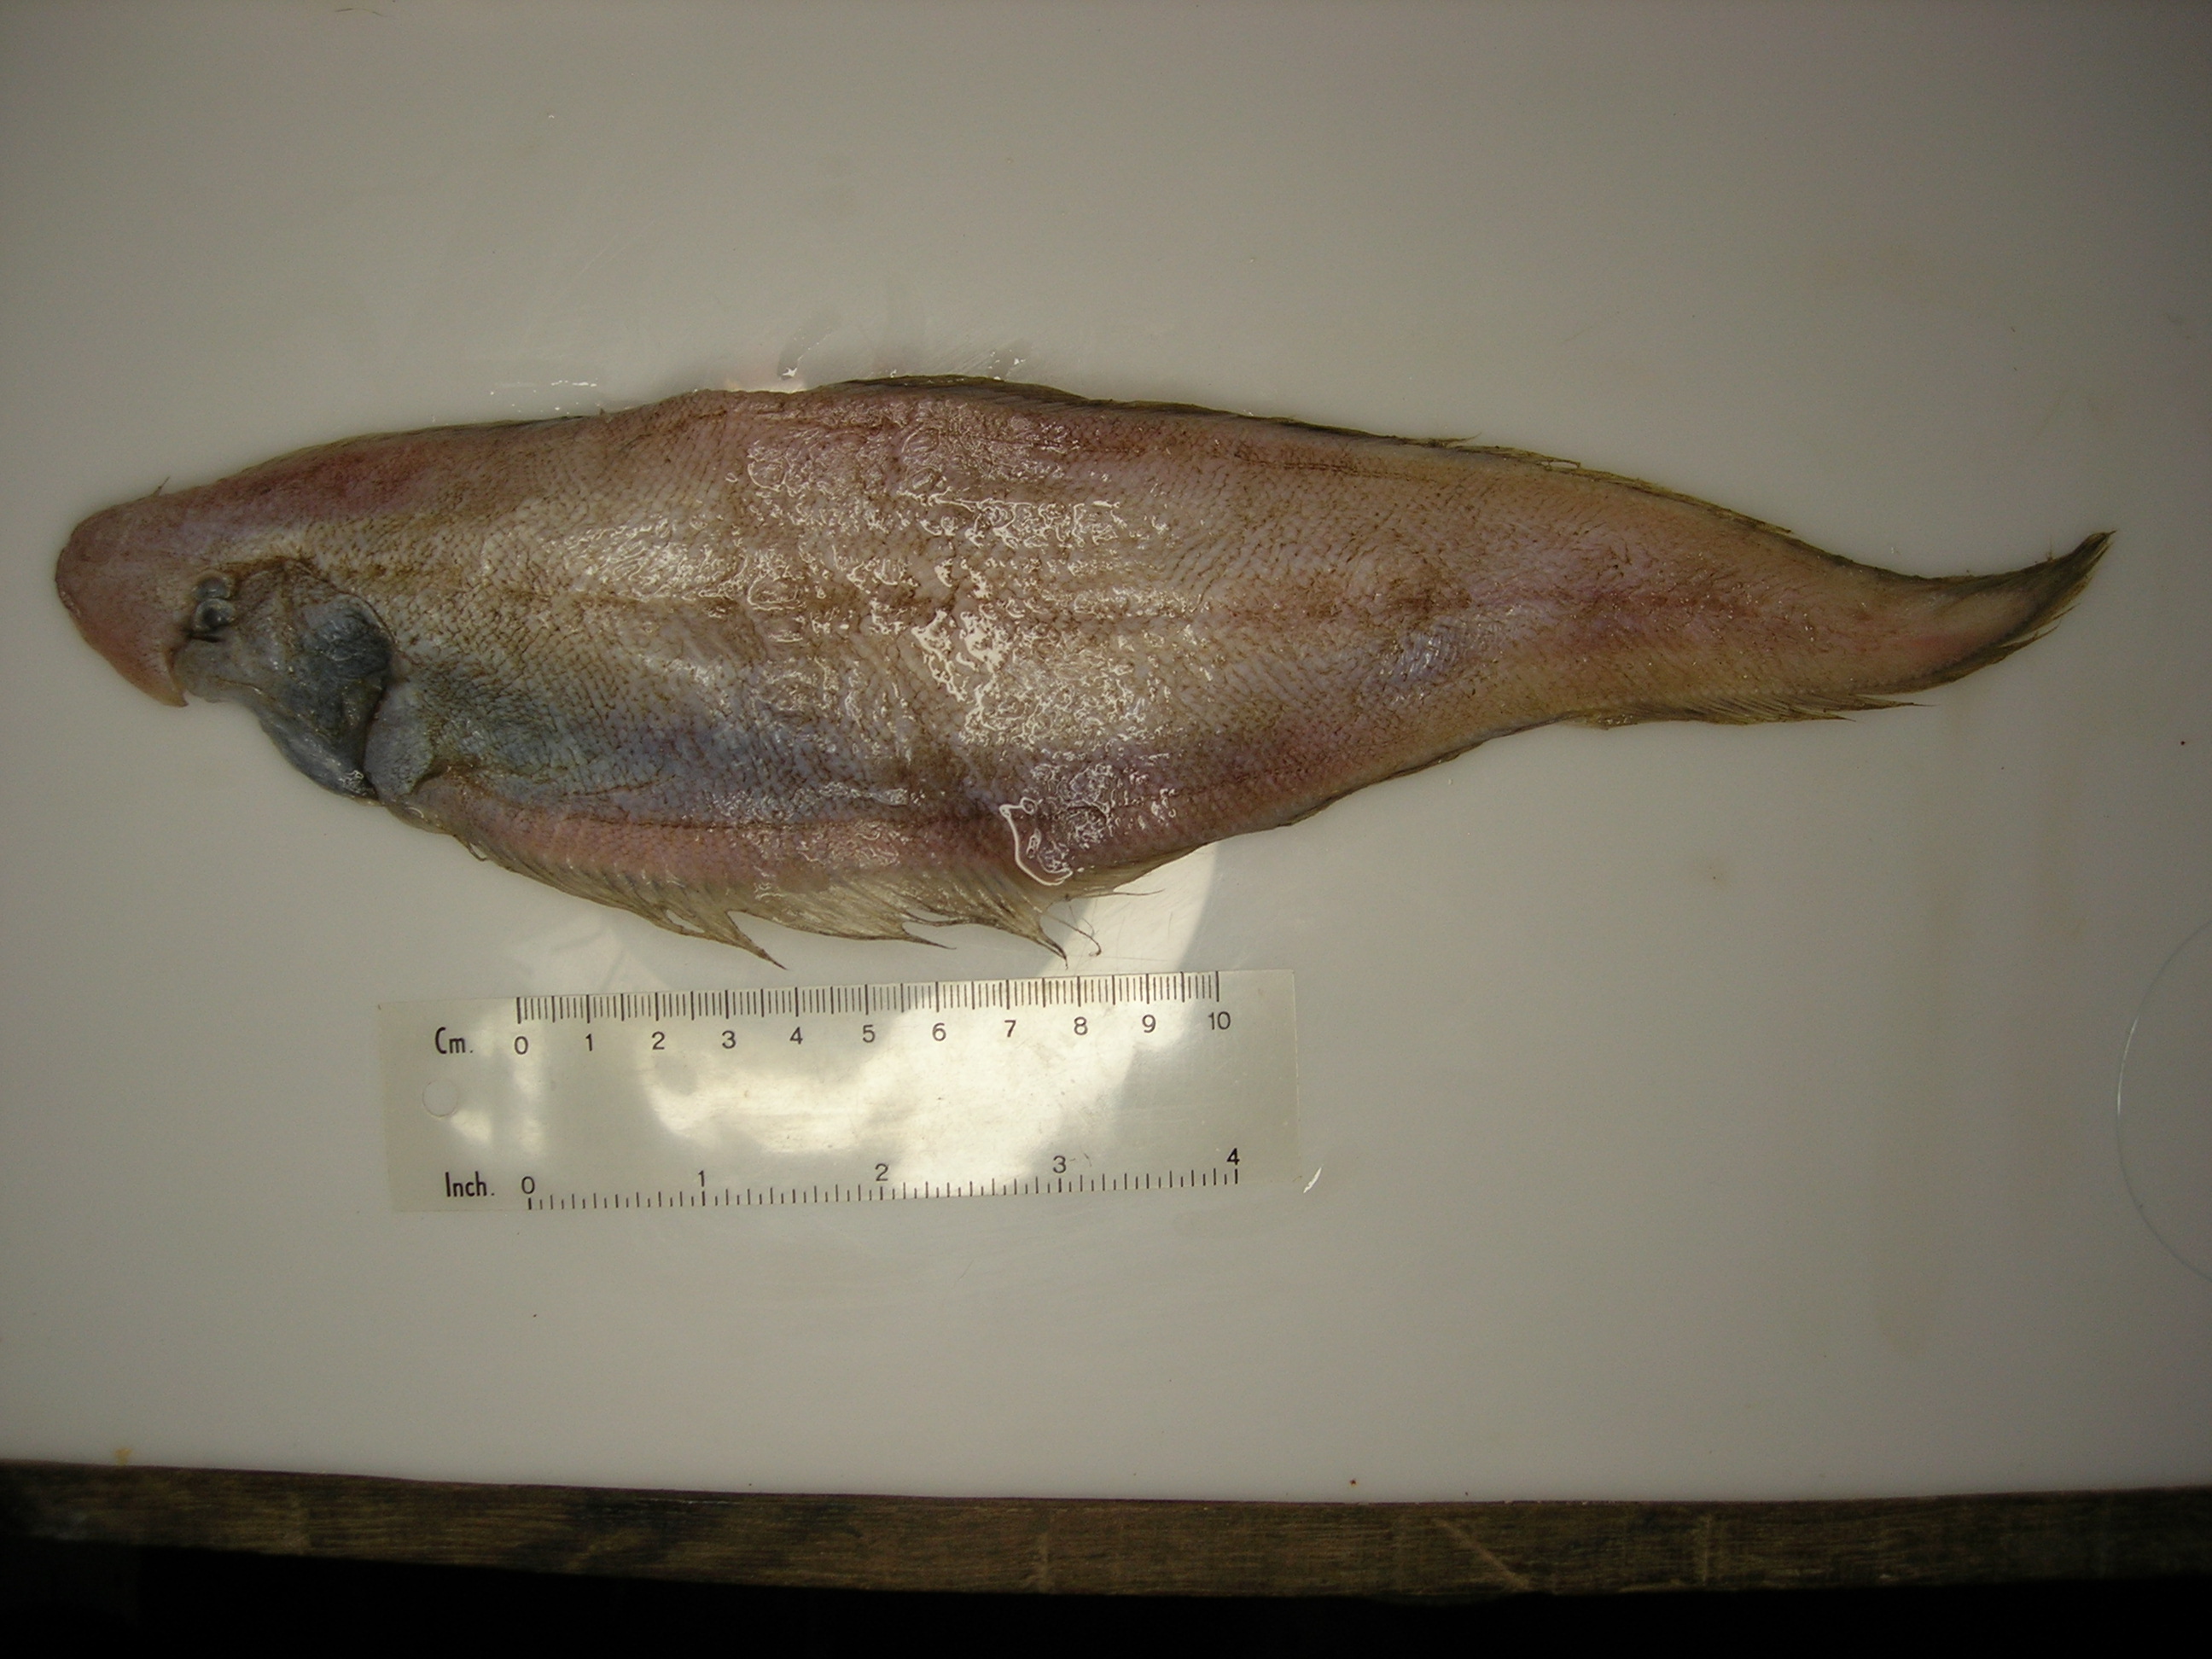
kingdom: Animalia
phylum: Chordata
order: Pleuronectiformes
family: Cynoglossidae
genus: Cynoglossus
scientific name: Cynoglossus marleyi
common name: Threeline tonguesole
